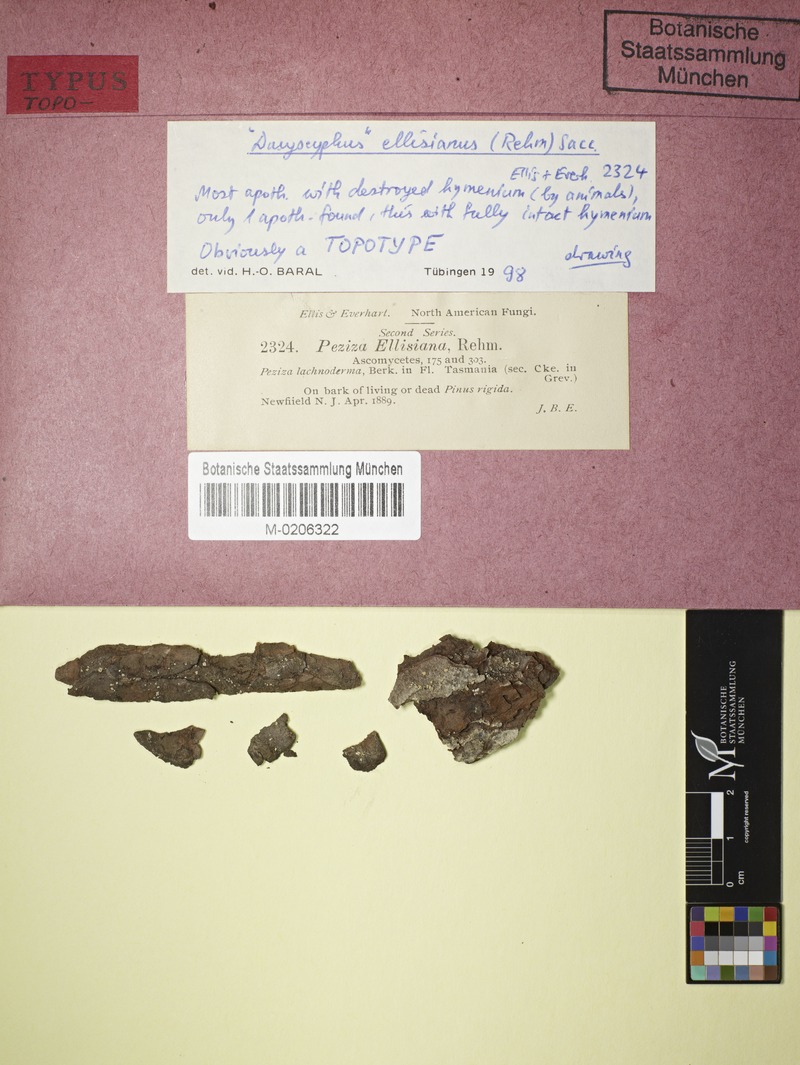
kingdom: Fungi
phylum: Ascomycota
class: Leotiomycetes
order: Helotiales
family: Lachnaceae
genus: Lachnellula
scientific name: Lachnellula ellisiana
